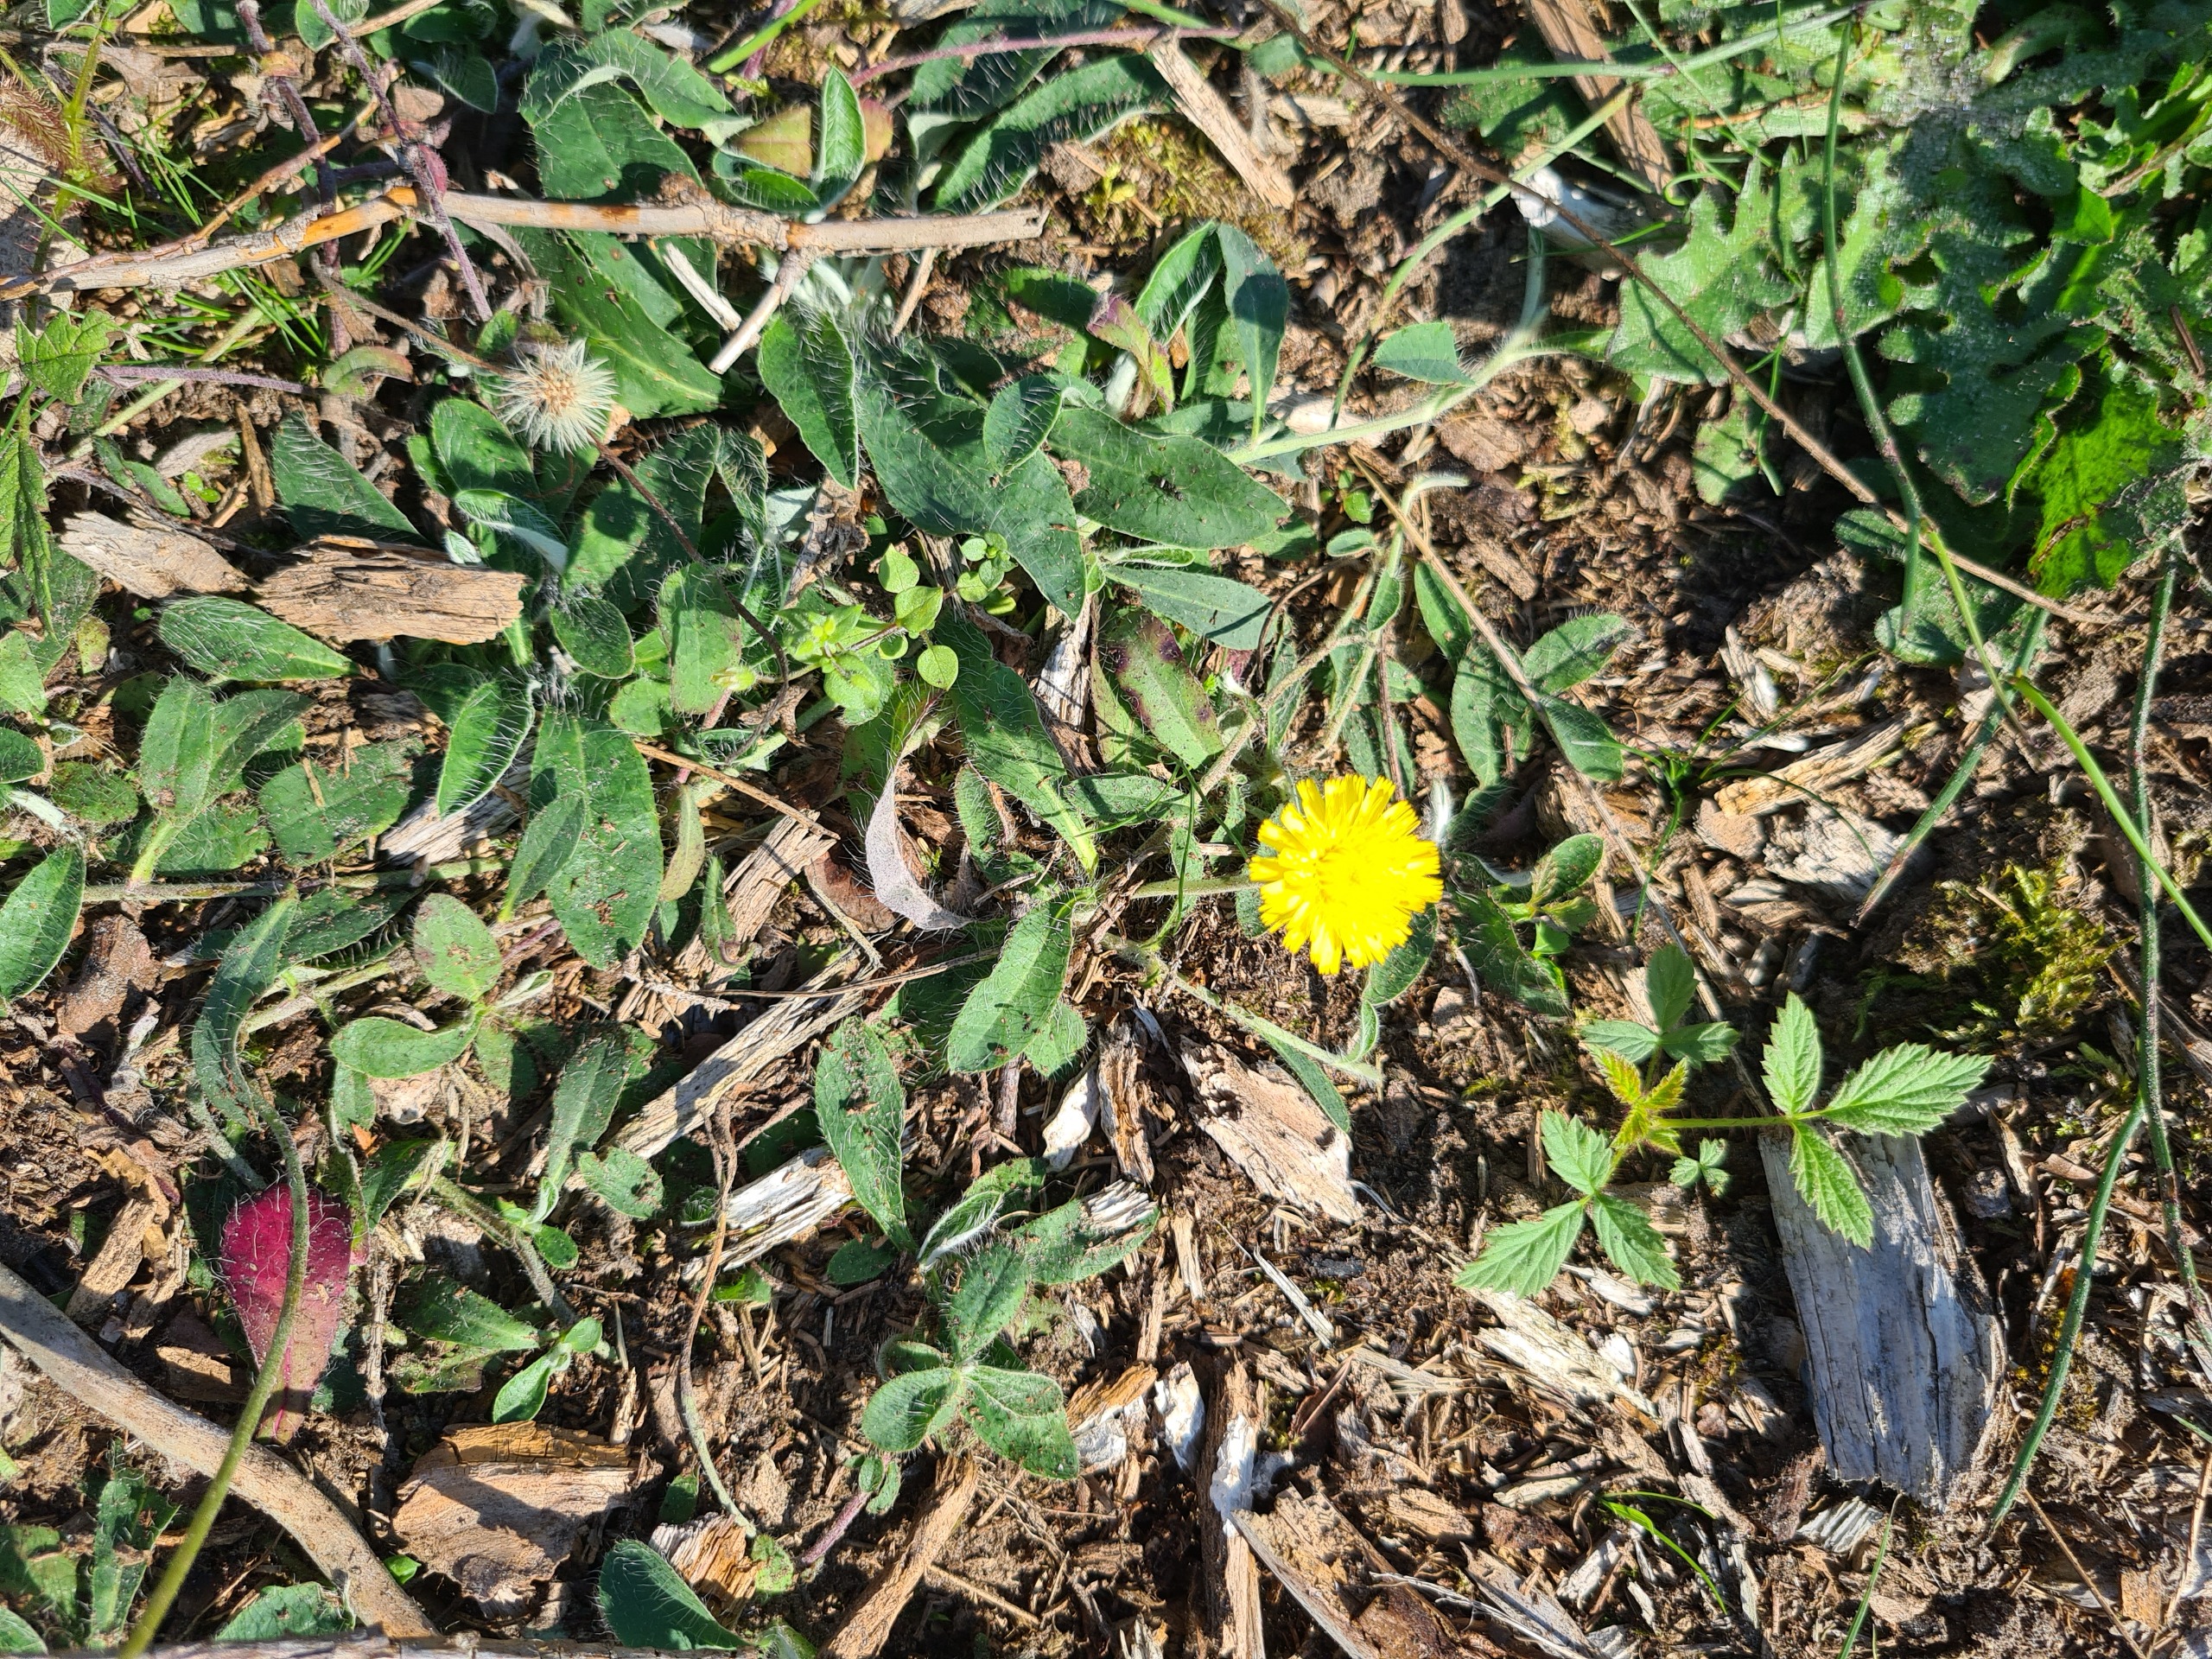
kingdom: Plantae
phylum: Tracheophyta
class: Magnoliopsida
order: Asterales
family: Asteraceae
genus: Pilosella
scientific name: Pilosella officinarum
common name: Håret høgeurt
